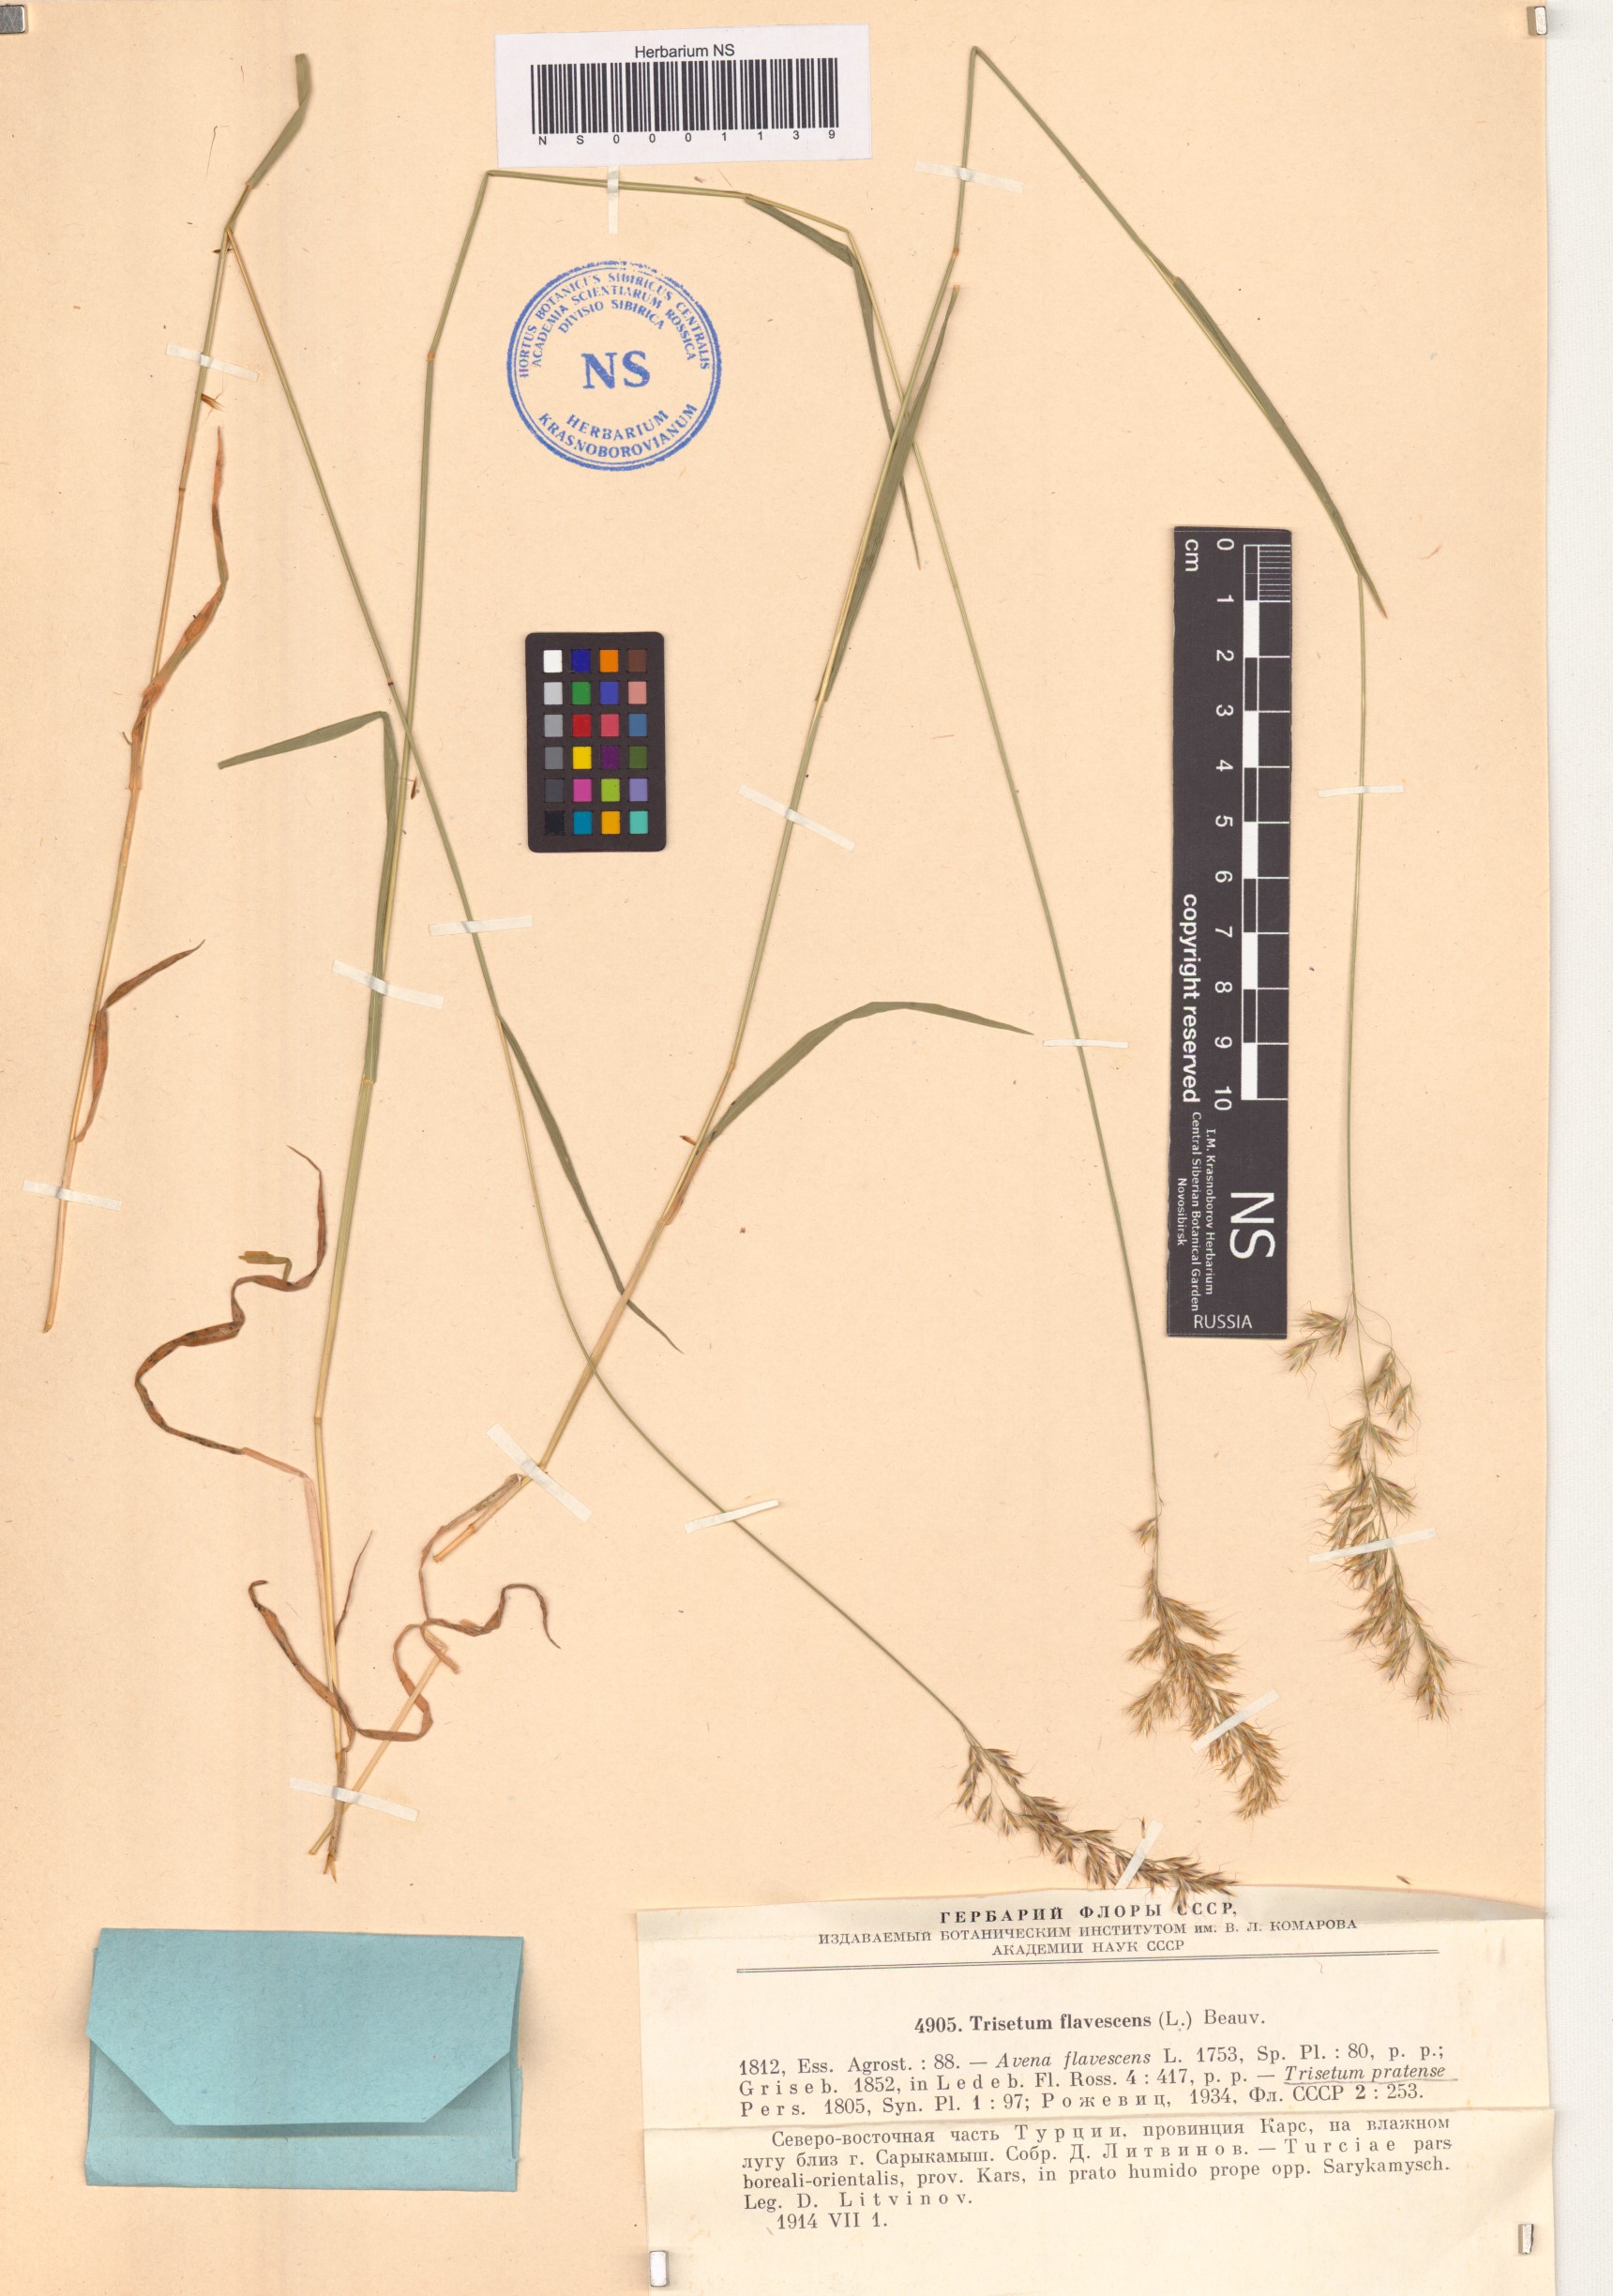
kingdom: Plantae
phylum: Tracheophyta
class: Liliopsida
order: Poales
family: Poaceae
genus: Trisetum
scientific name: Trisetum flavescens
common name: Yellow oat-grass
